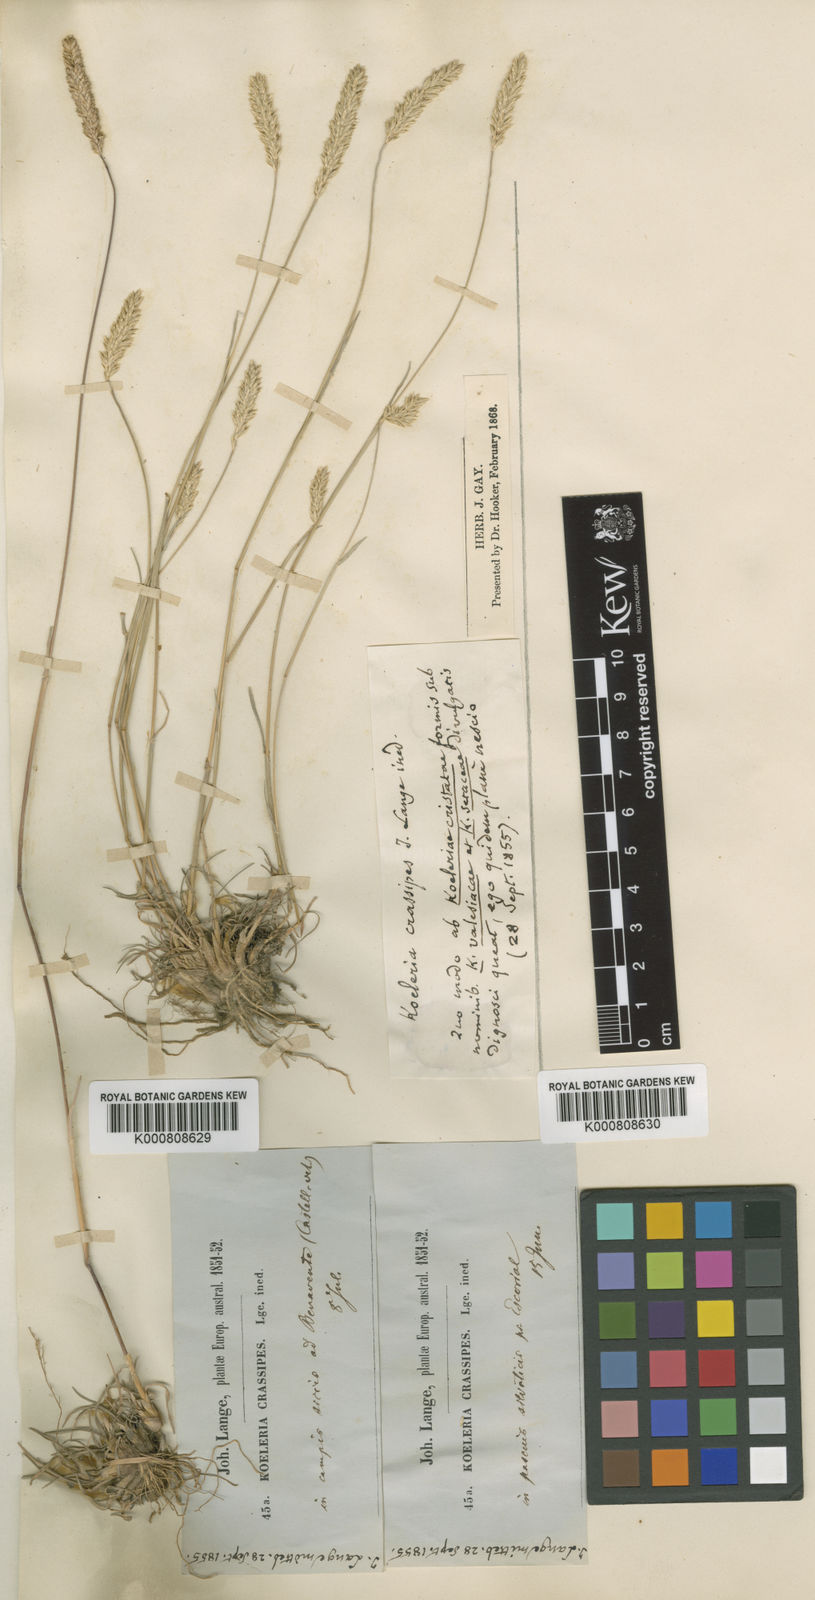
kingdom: Plantae
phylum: Tracheophyta
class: Liliopsida
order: Poales
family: Poaceae
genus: Koeleria
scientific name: Koeleria
